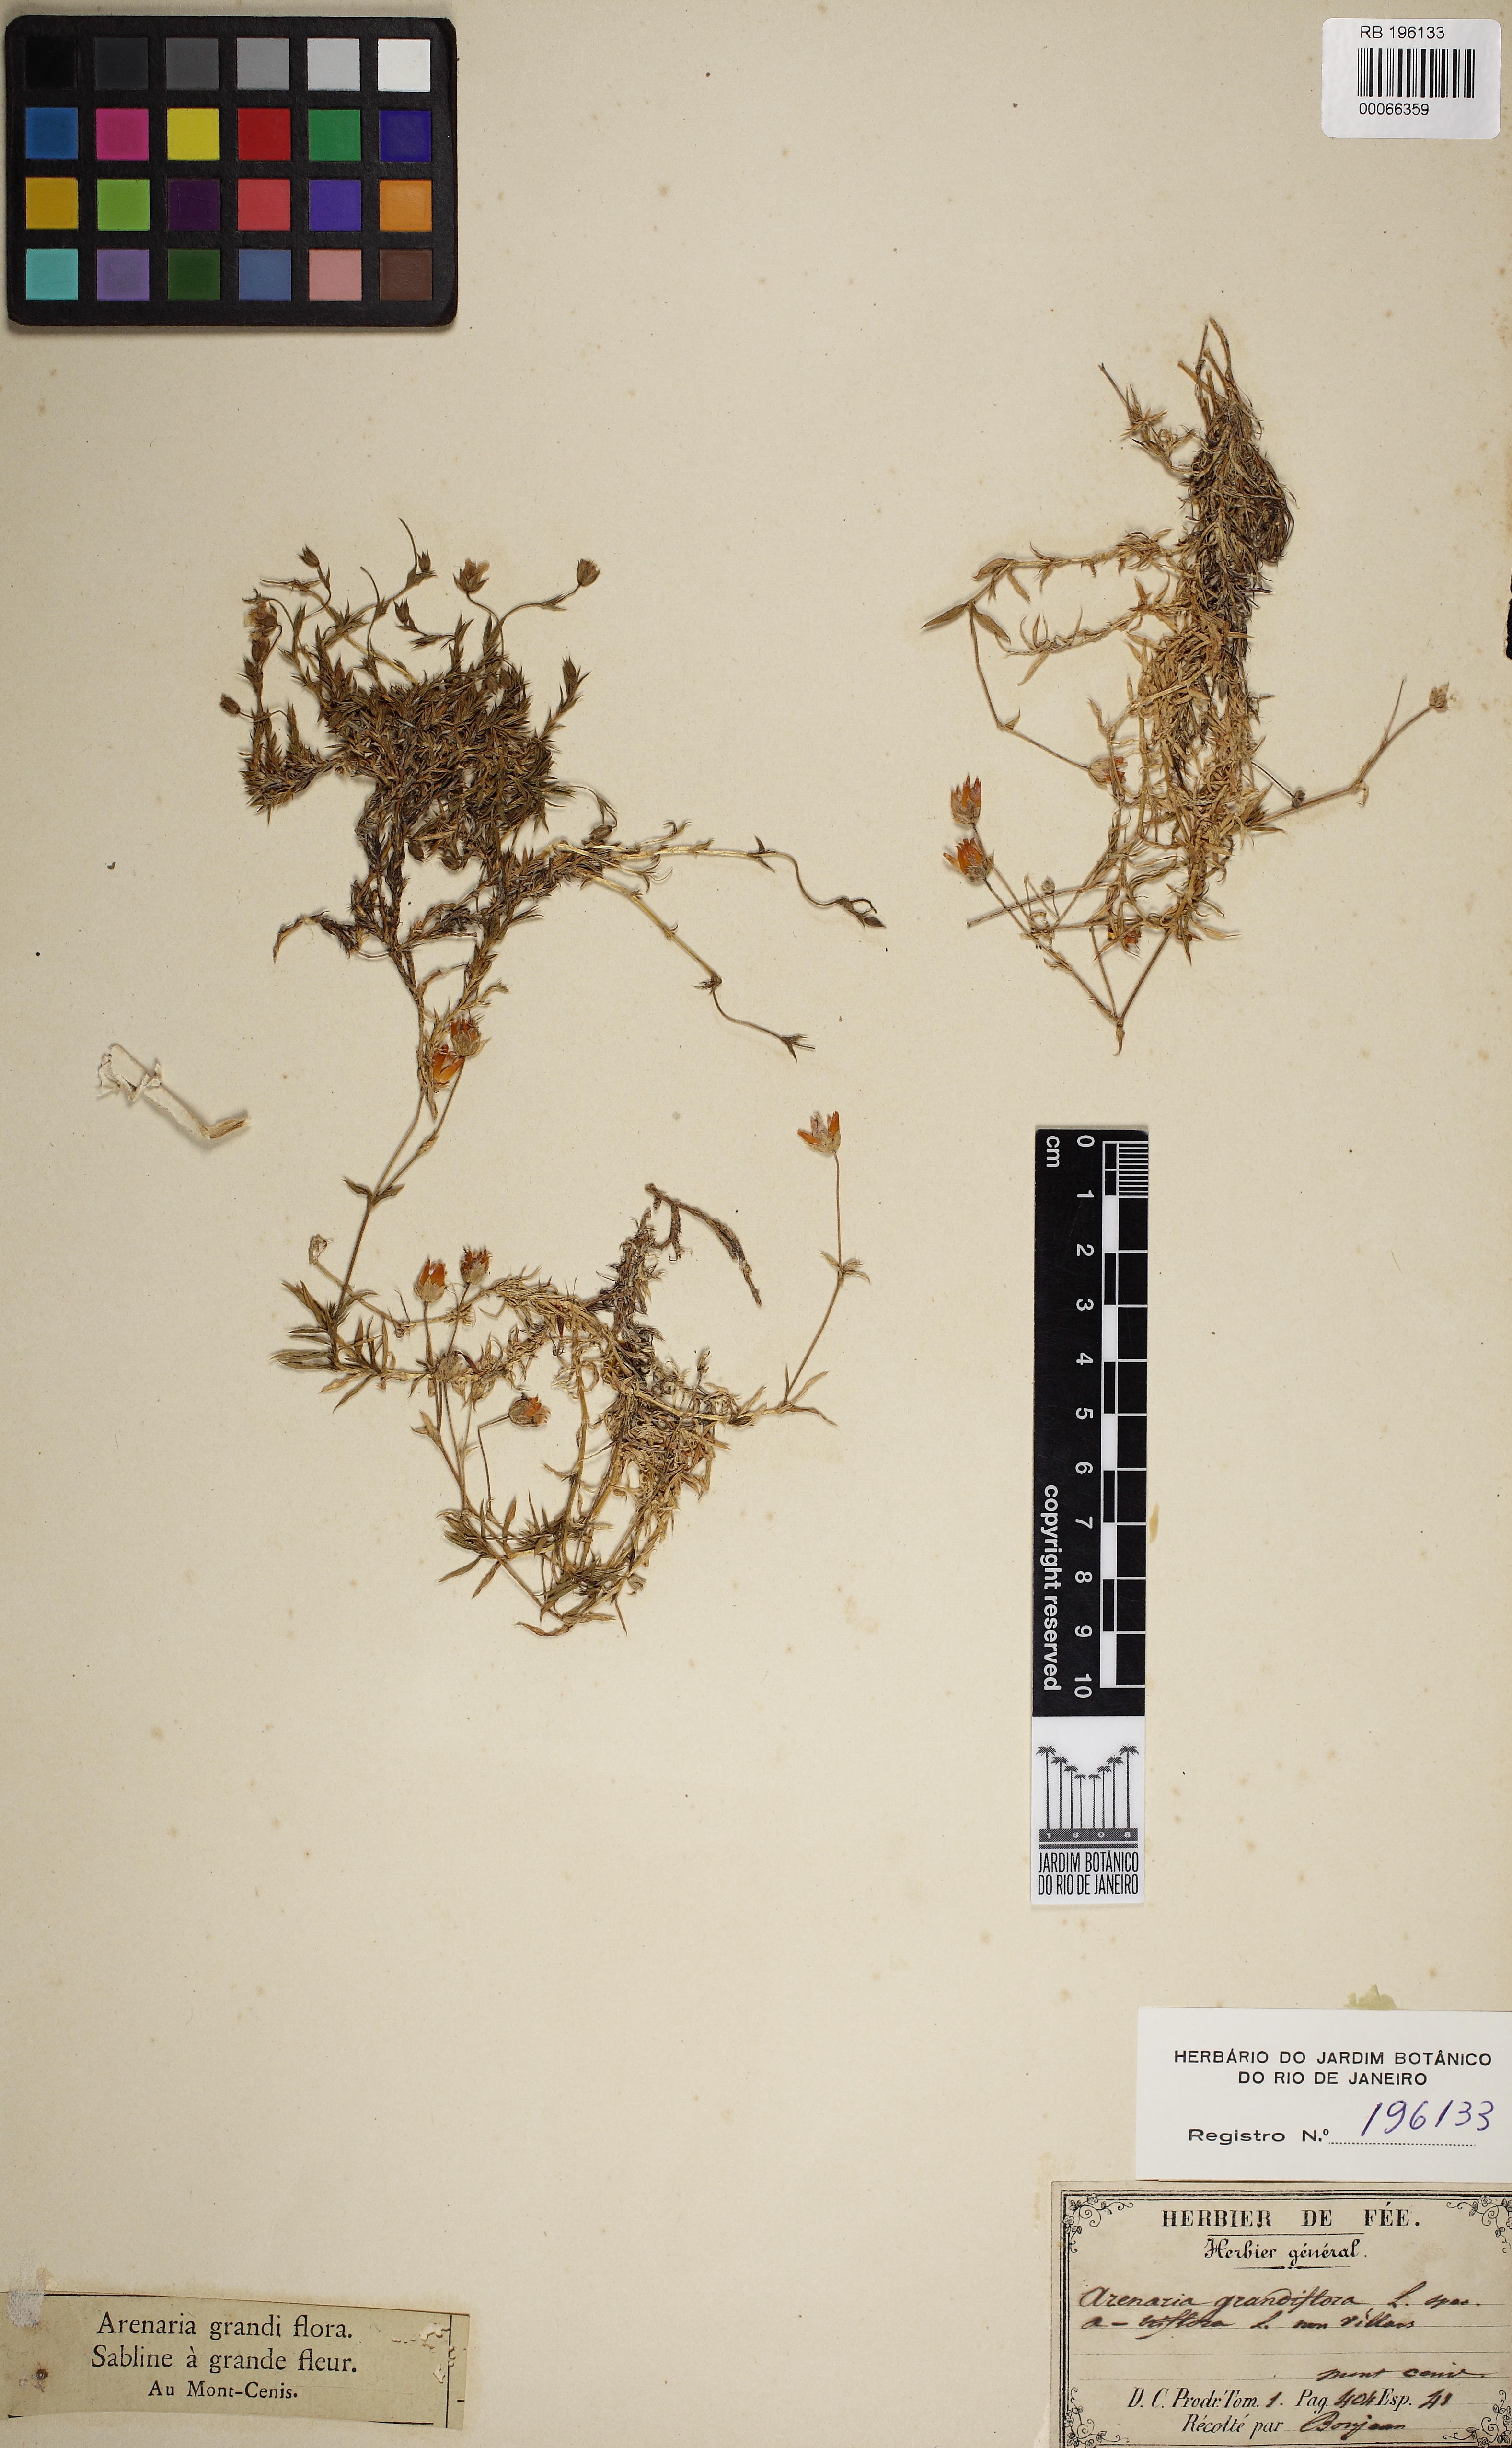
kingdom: Plantae
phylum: Tracheophyta
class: Magnoliopsida
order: Caryophyllales
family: Caryophyllaceae
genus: Arenaria
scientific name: Arenaria grandiflora
